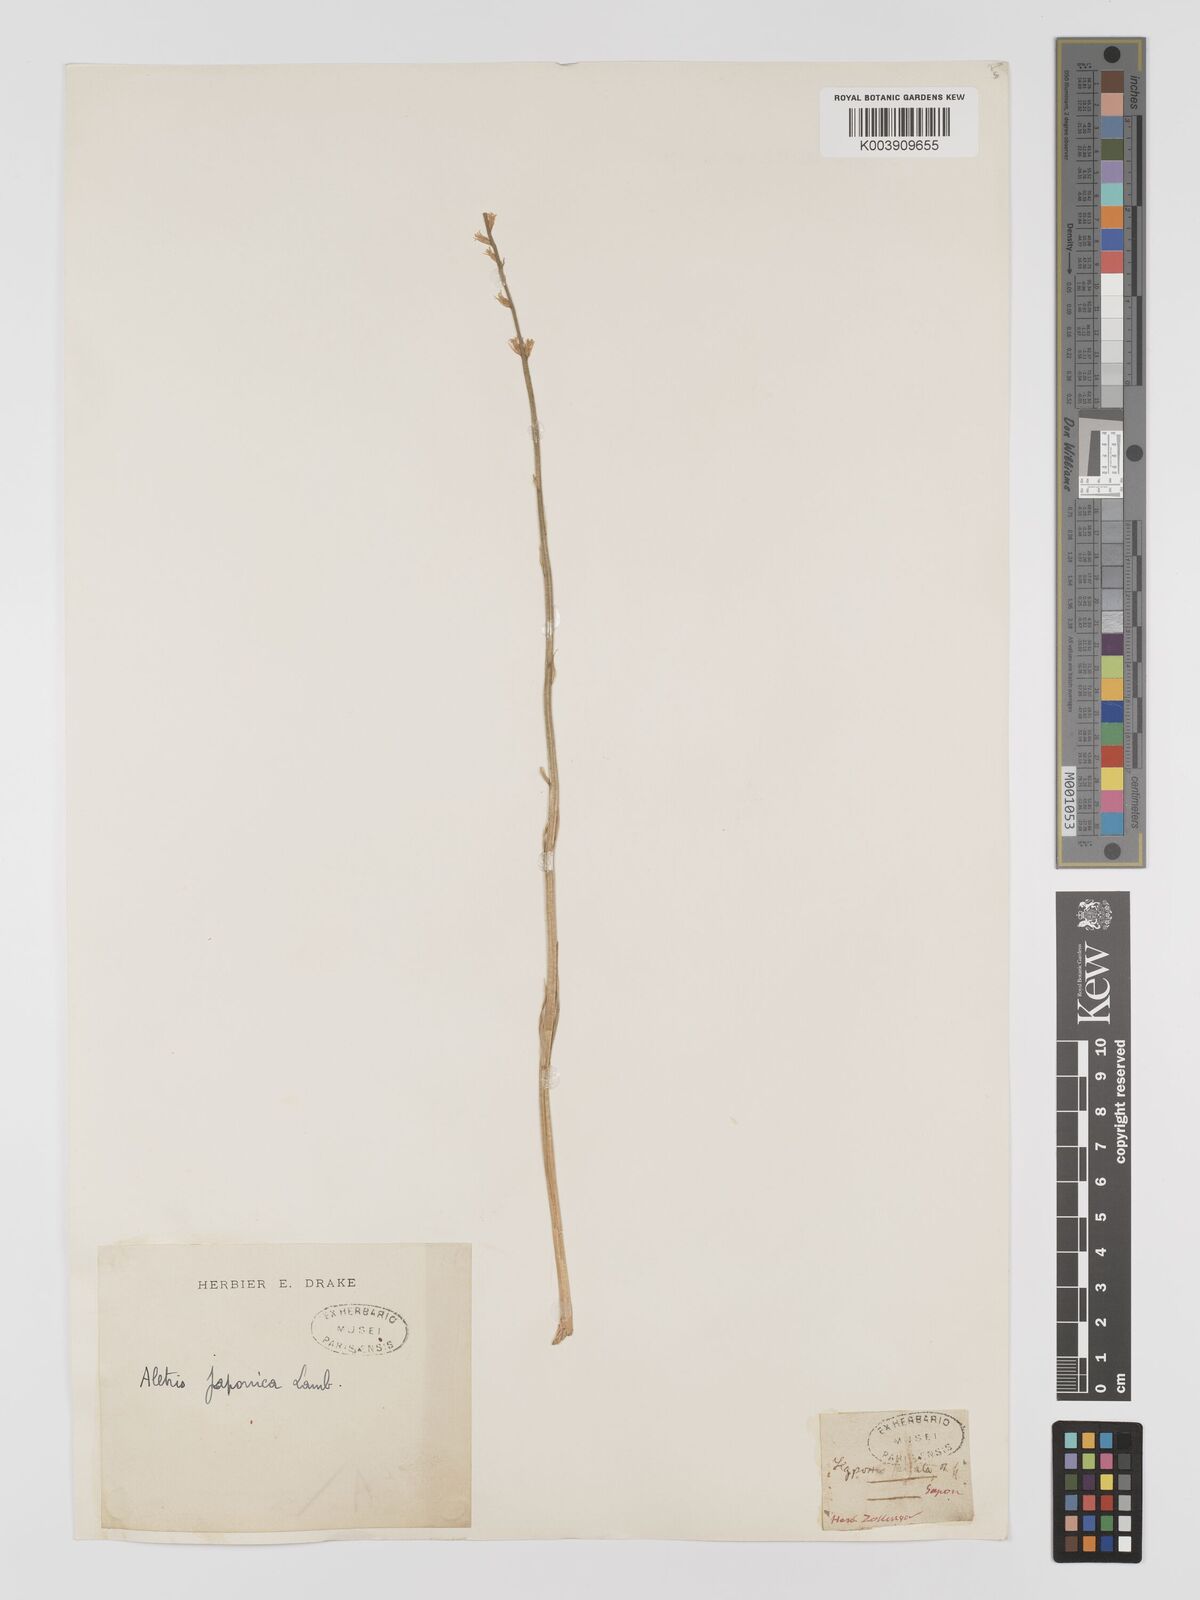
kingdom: Plantae
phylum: Tracheophyta
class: Liliopsida
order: Dioscoreales
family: Nartheciaceae
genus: Aletris
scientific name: Aletris spicata
